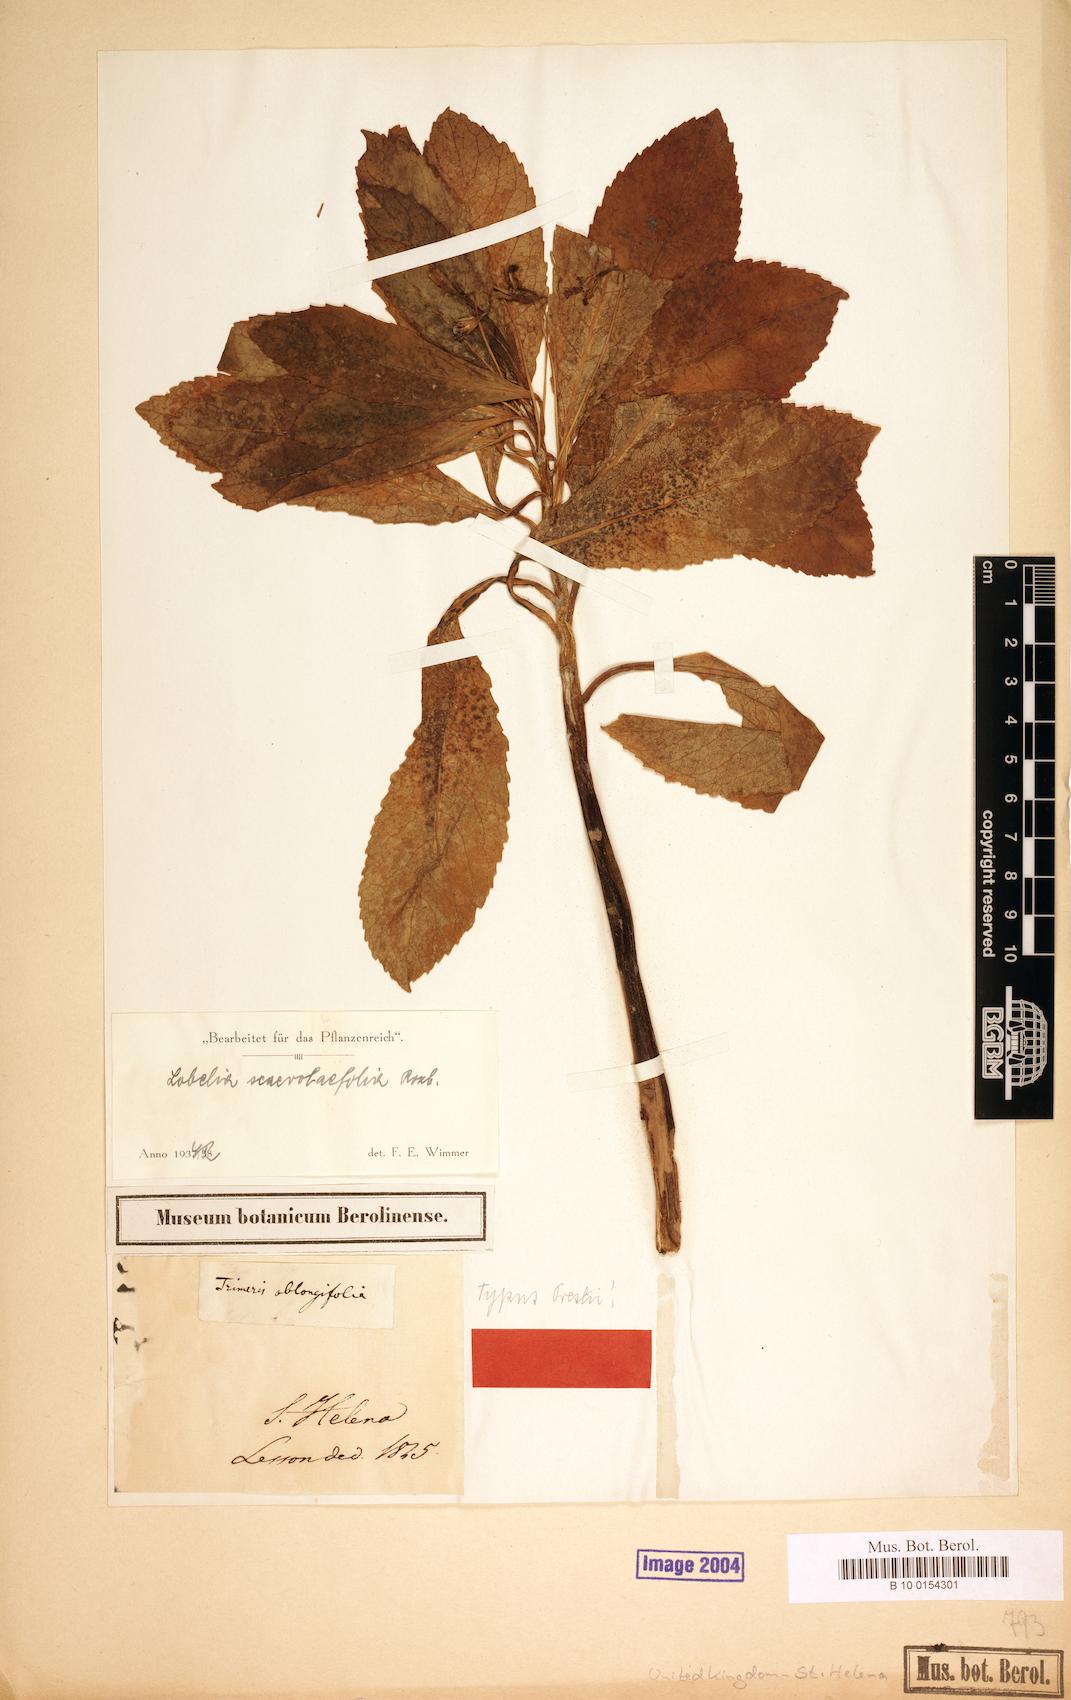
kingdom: Plantae
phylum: Tracheophyta
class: Magnoliopsida
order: Asterales
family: Campanulaceae
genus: Lobelia
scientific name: Lobelia scaevolifolia
